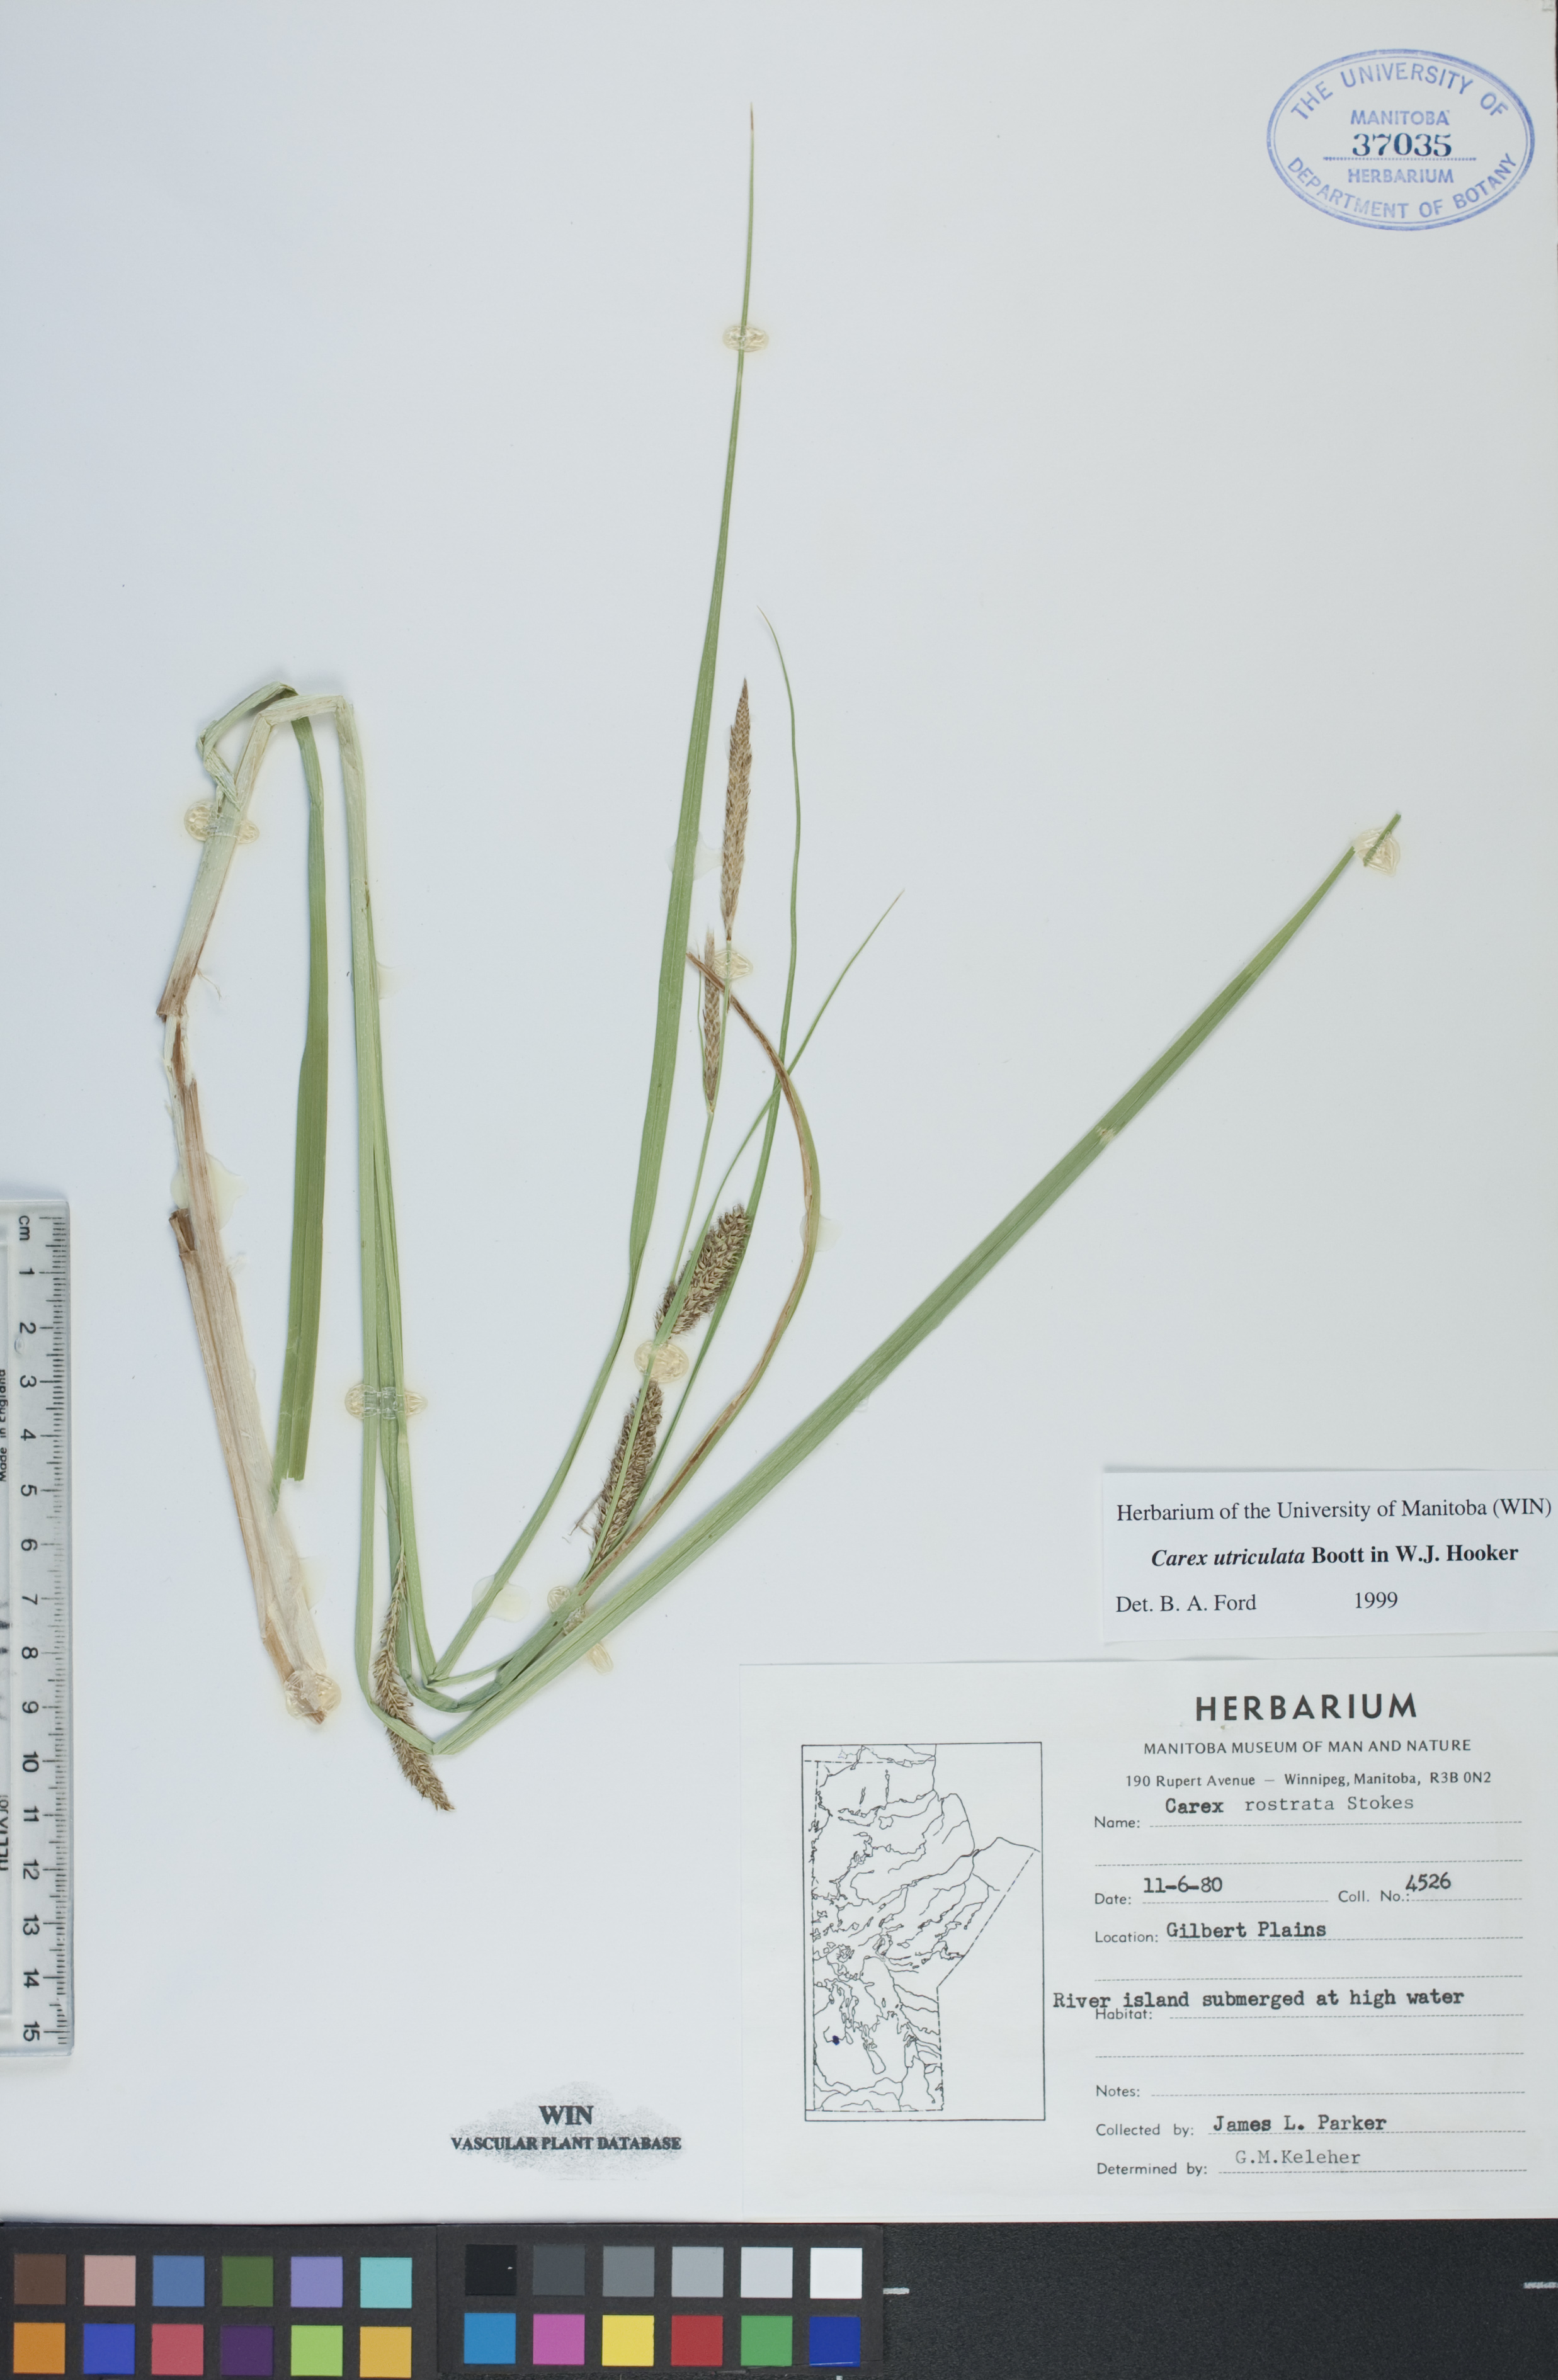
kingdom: Plantae
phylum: Tracheophyta
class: Liliopsida
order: Poales
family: Cyperaceae
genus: Carex
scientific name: Carex utriculata
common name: Beaked sedge
